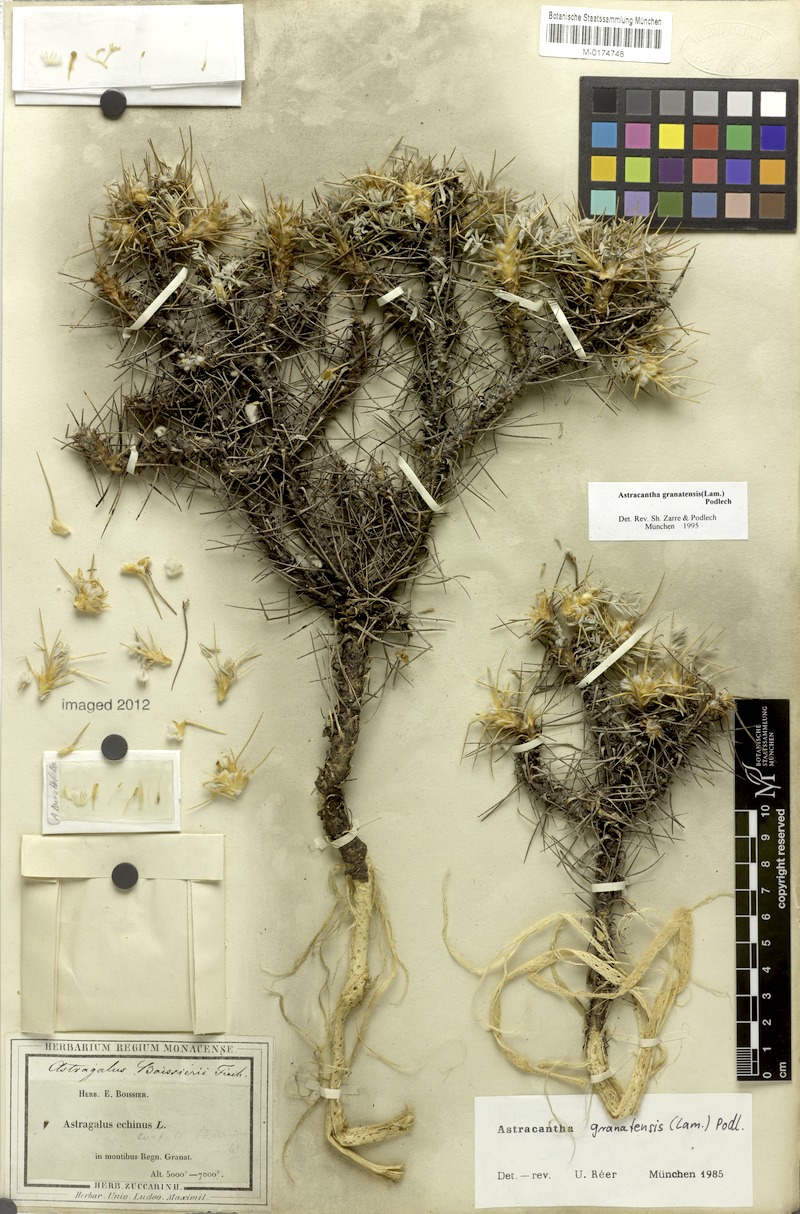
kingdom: Plantae
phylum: Tracheophyta
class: Magnoliopsida
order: Fabales
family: Fabaceae
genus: Astragalus
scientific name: Astragalus granatensis
